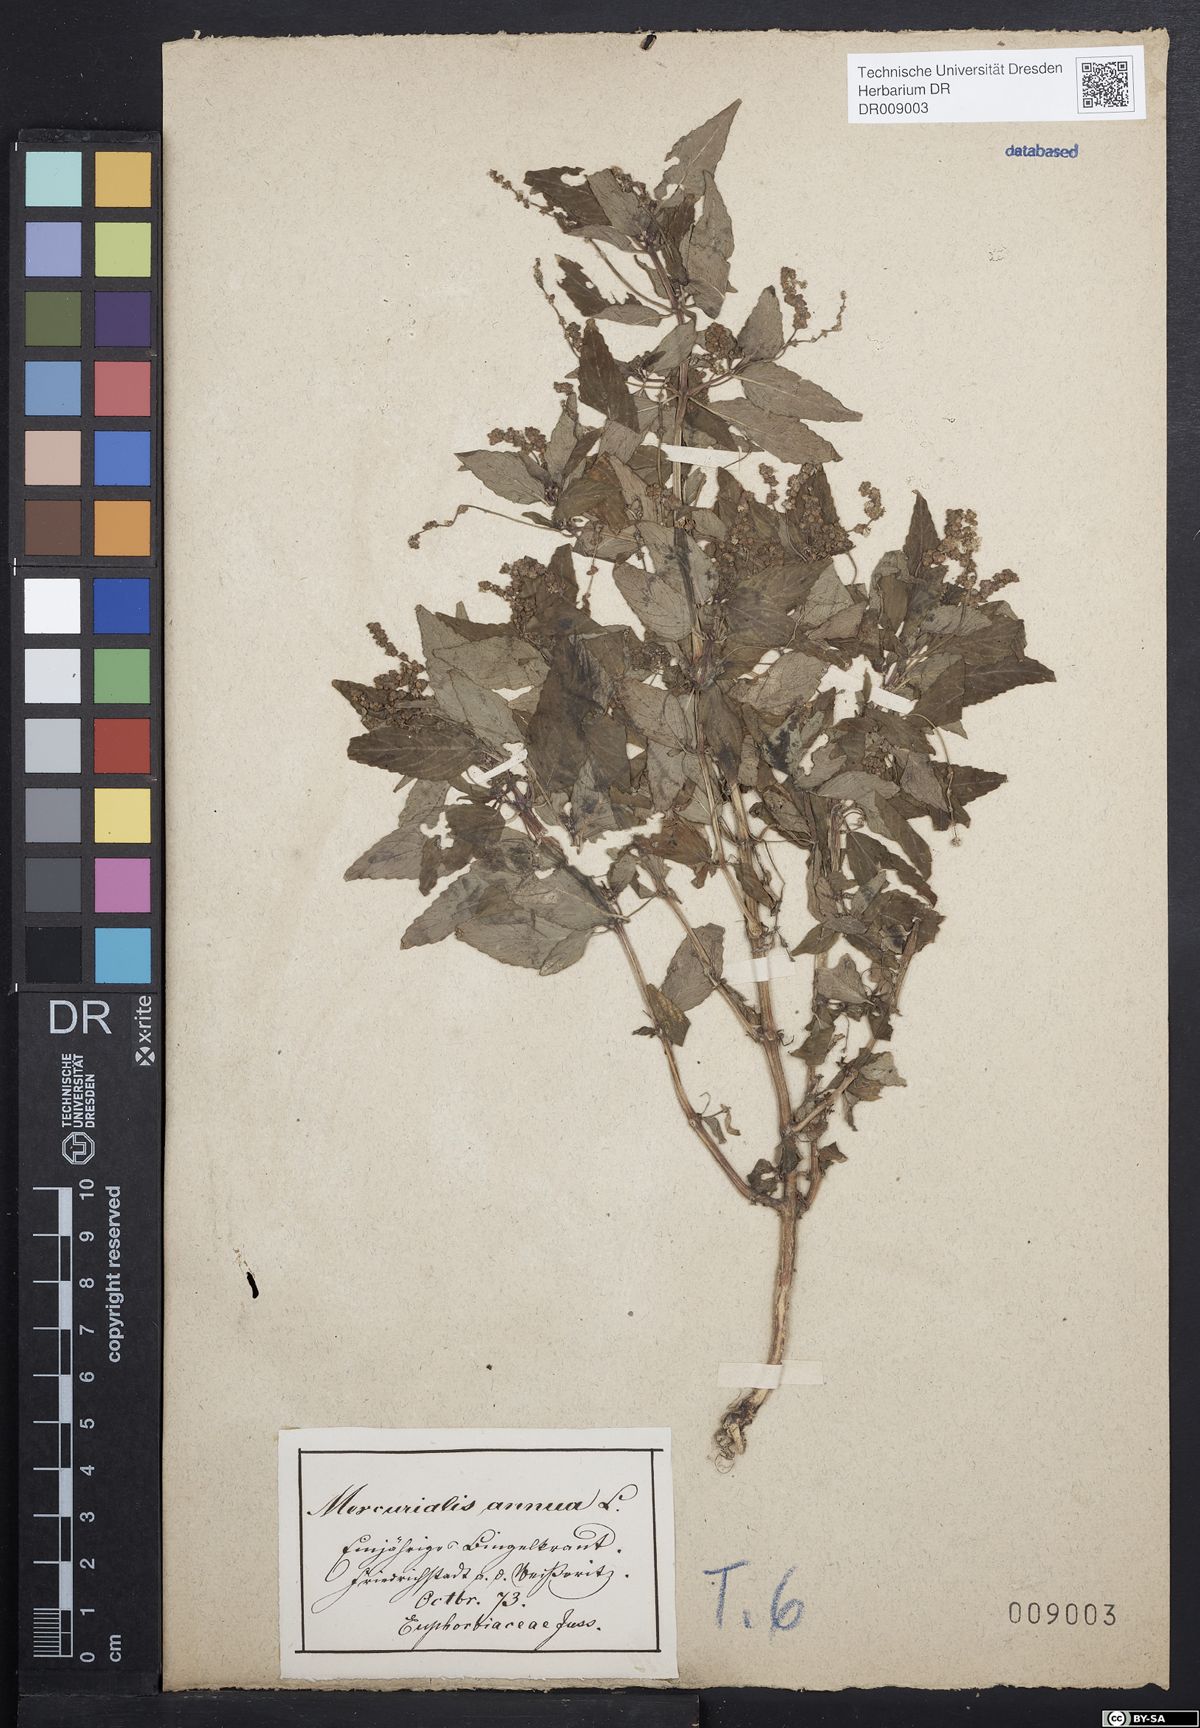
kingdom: Plantae
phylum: Tracheophyta
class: Magnoliopsida
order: Malpighiales
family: Euphorbiaceae
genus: Mercurialis
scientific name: Mercurialis annua
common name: Annual mercury
